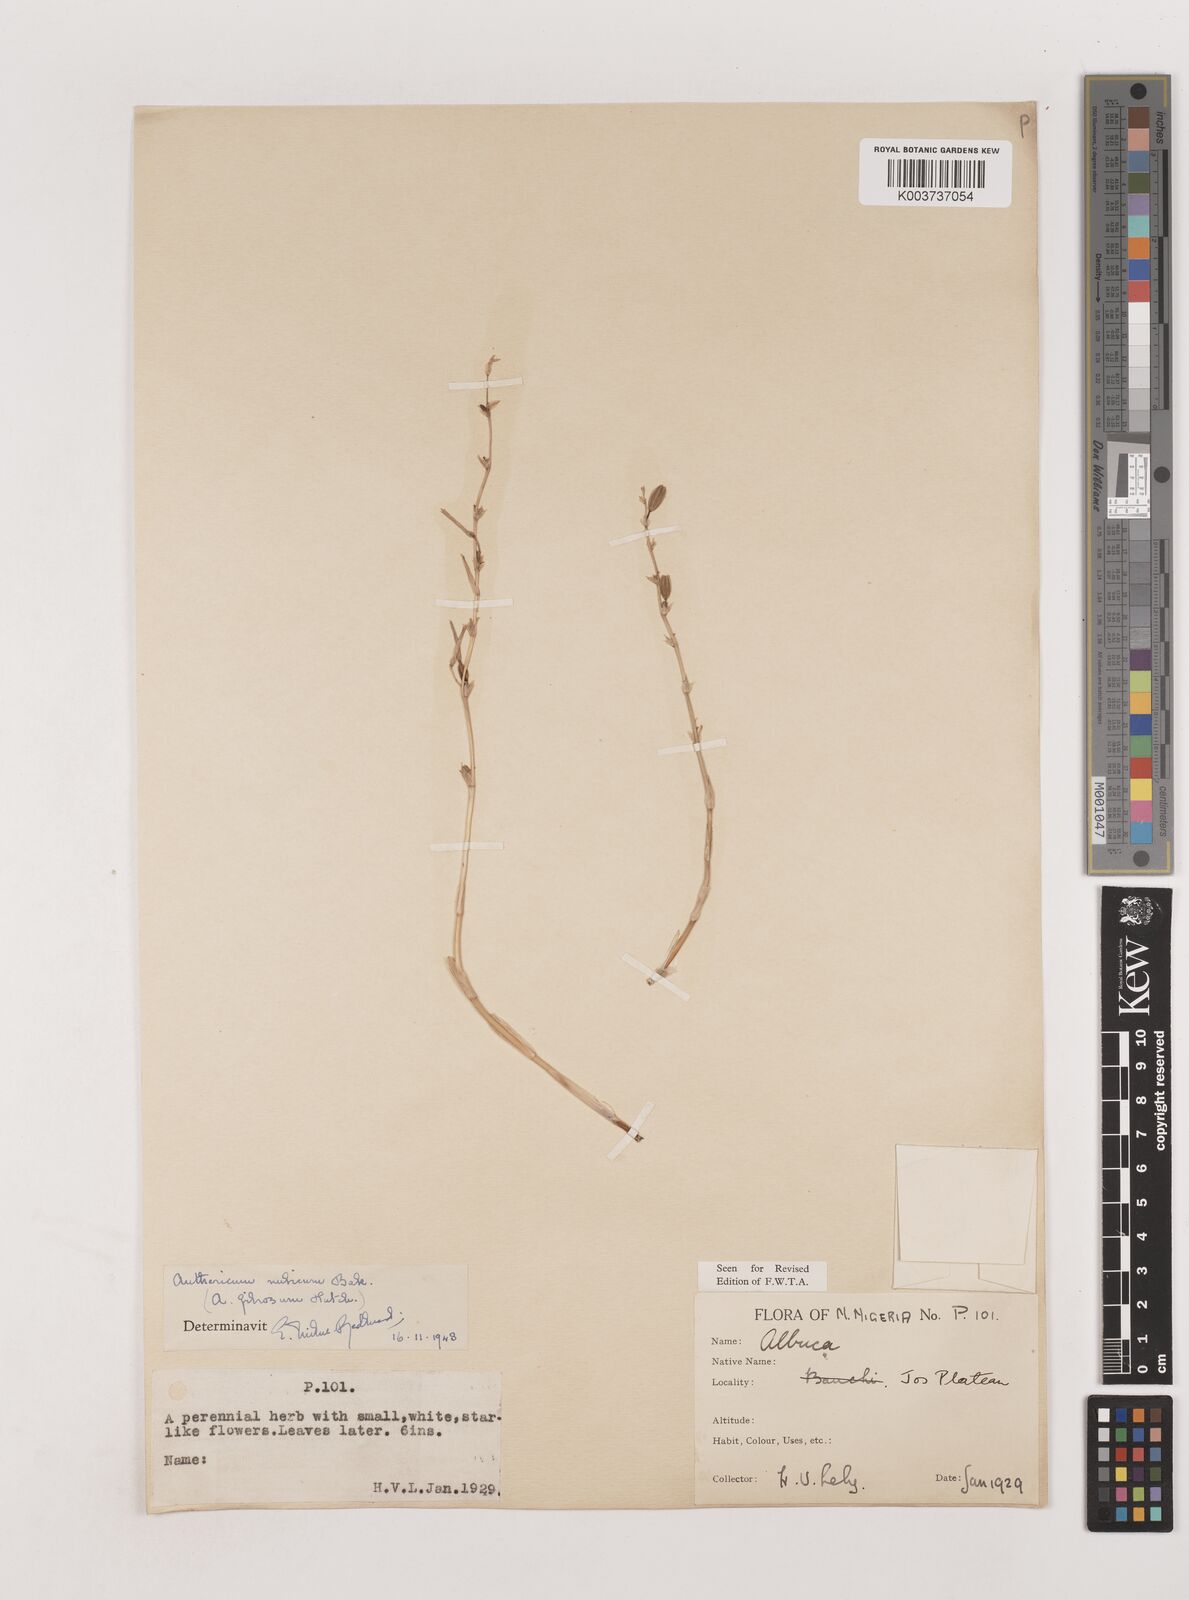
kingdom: Plantae
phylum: Tracheophyta
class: Liliopsida
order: Asparagales
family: Asparagaceae
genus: Chlorophytum
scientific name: Chlorophytum nubicum
